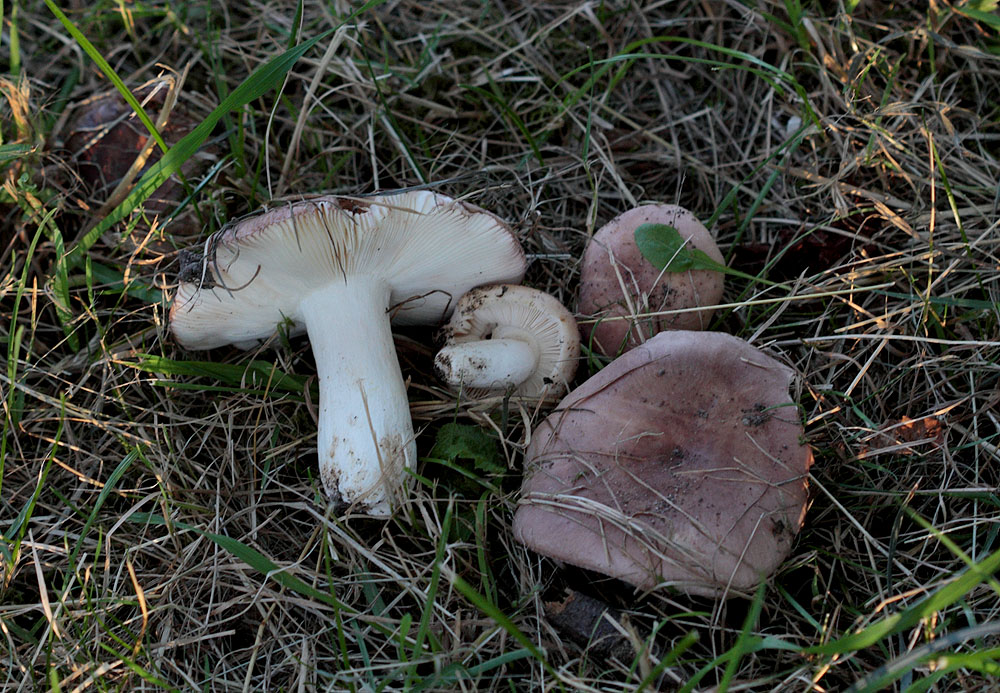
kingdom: Fungi
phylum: Basidiomycota
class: Agaricomycetes
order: Russulales
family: Russulaceae
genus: Russula
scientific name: Russula grisea
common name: grålig skørhat
